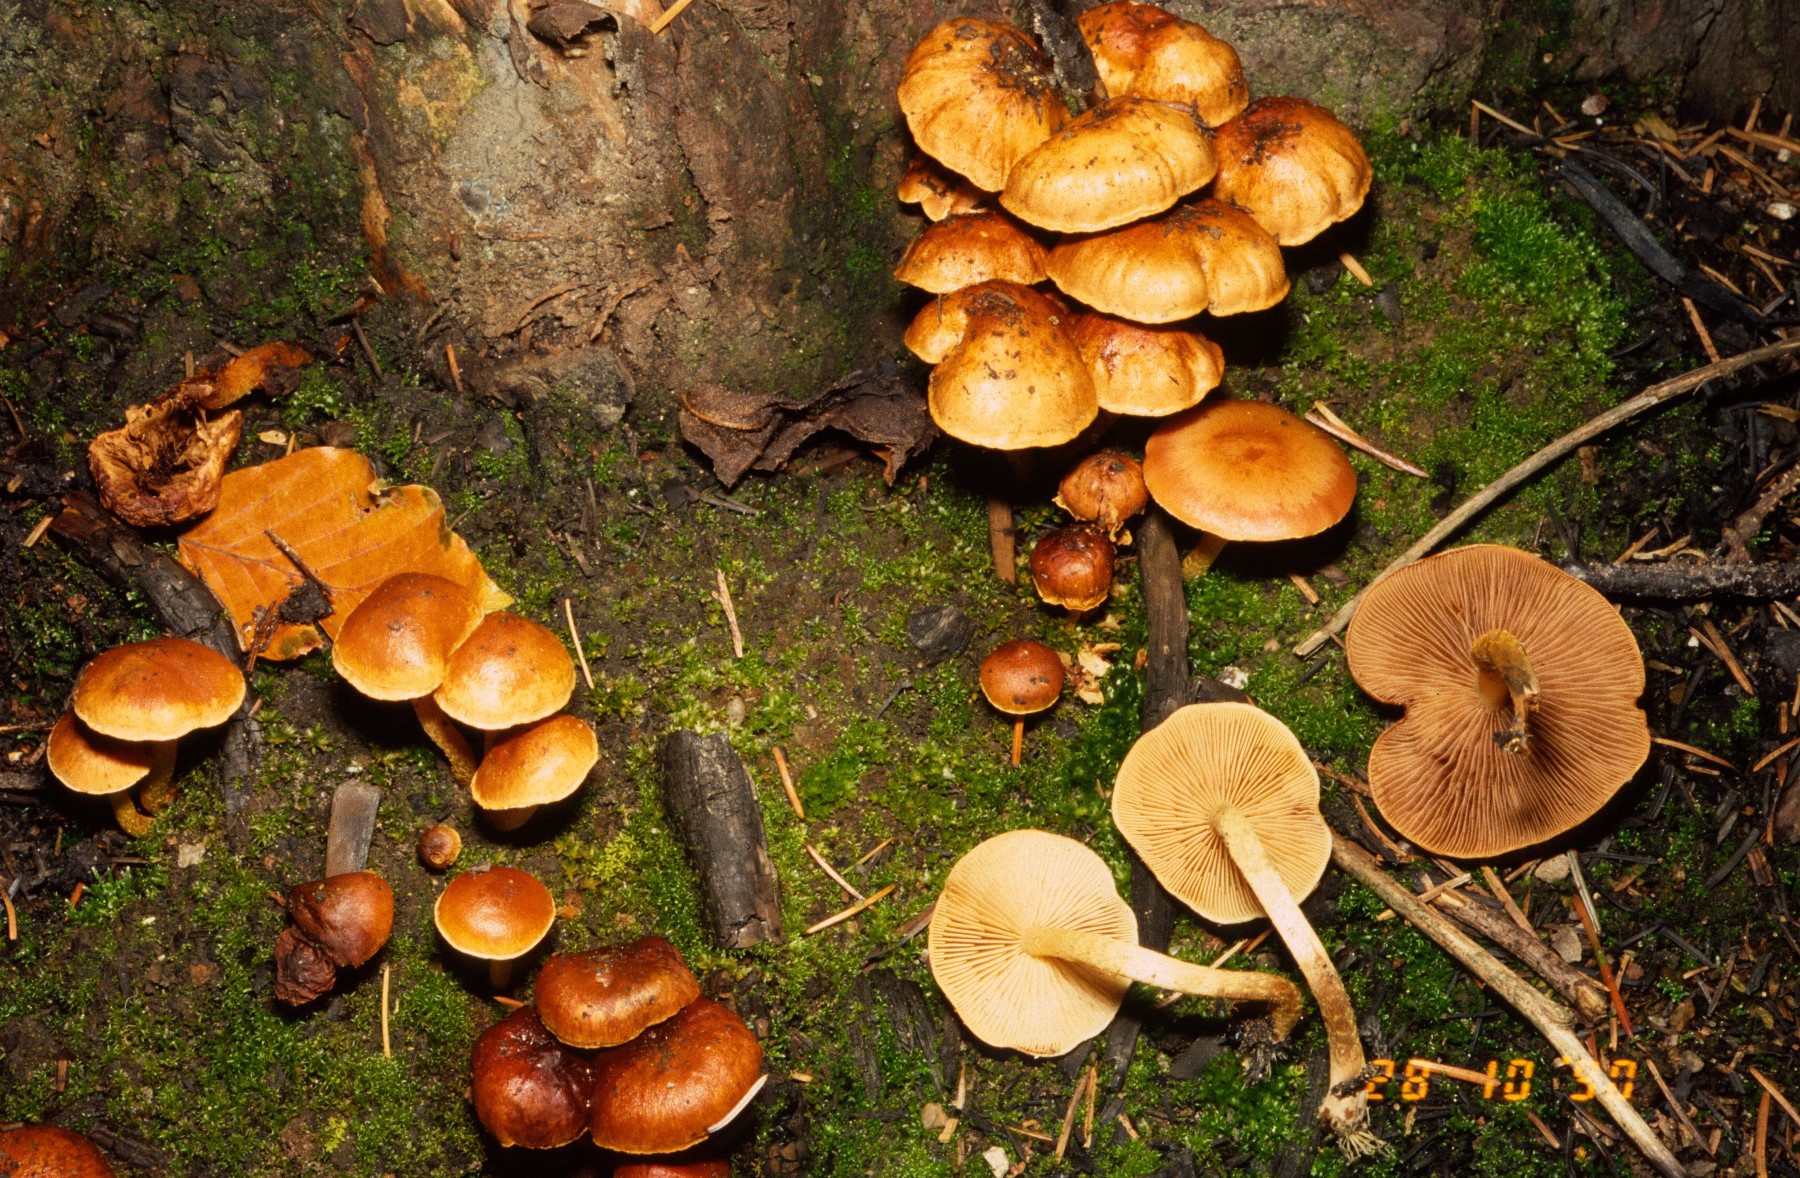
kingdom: Fungi
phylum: Basidiomycota
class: Agaricomycetes
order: Agaricales
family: Strophariaceae
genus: Pholiota
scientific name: Pholiota carbonaria
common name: kul-skælhat
